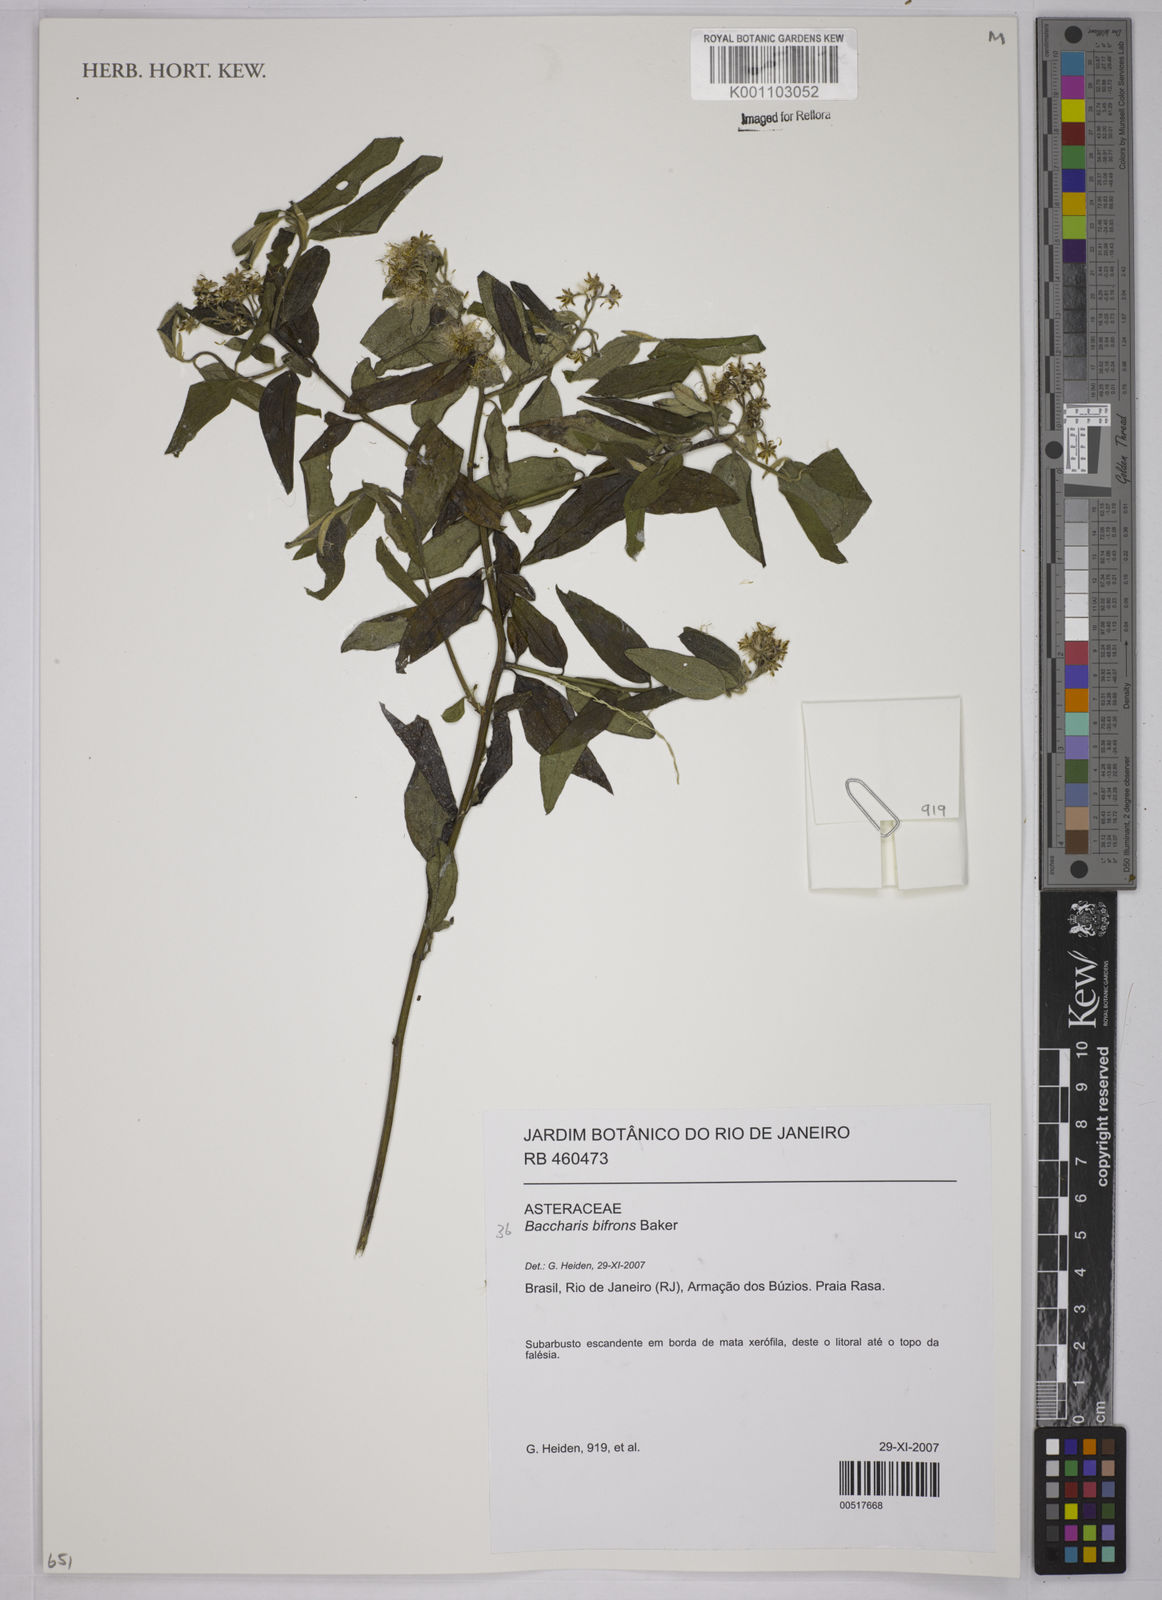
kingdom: Plantae
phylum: Tracheophyta
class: Magnoliopsida
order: Asterales
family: Asteraceae
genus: Baccharis
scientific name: Baccharis bifrons
